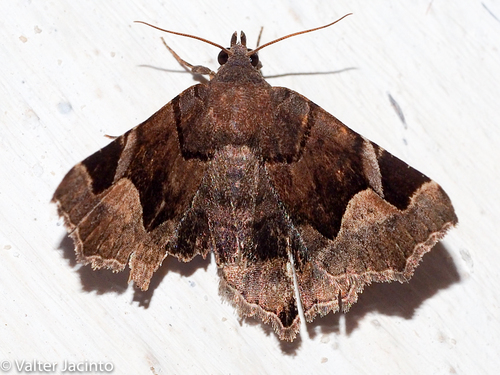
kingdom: Animalia
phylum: Arthropoda
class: Insecta
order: Lepidoptera
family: Erebidae
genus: Zethes
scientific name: Zethes insularis
